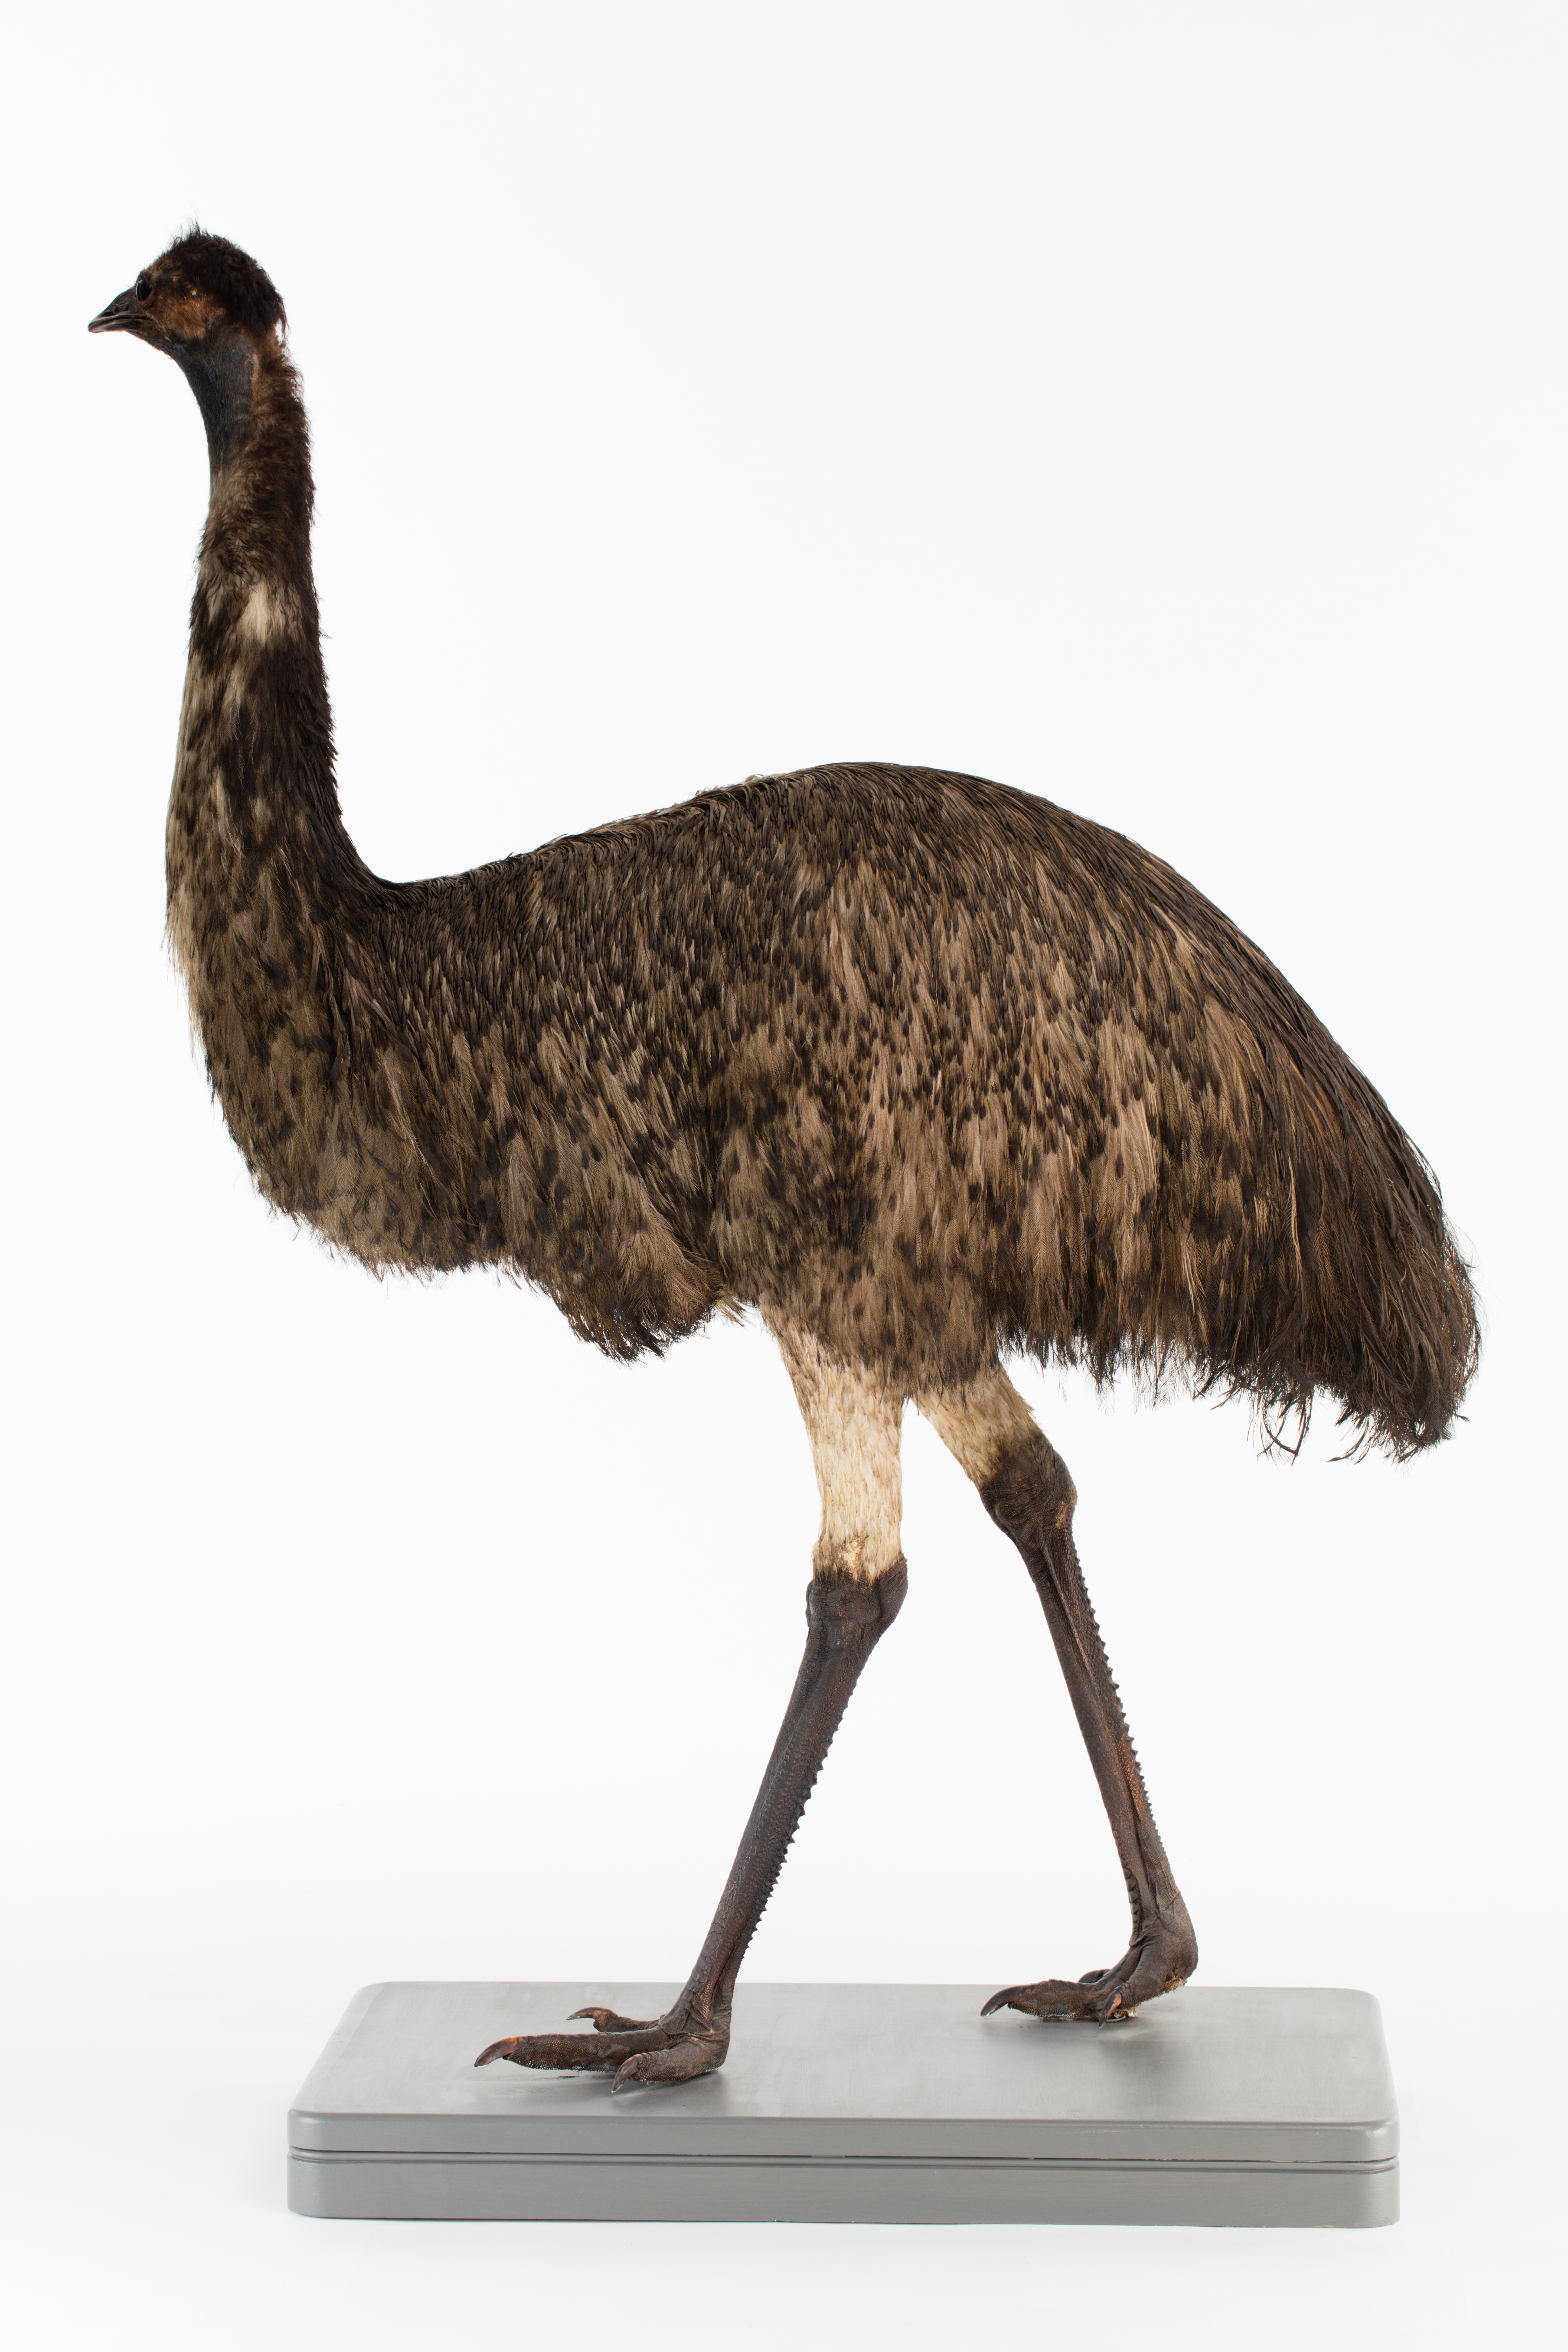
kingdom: Animalia
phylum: Chordata
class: Aves
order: Casuariiformes
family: Dromaiidae
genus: Dromaius
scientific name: Dromaius novaehollandiae
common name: Emu
